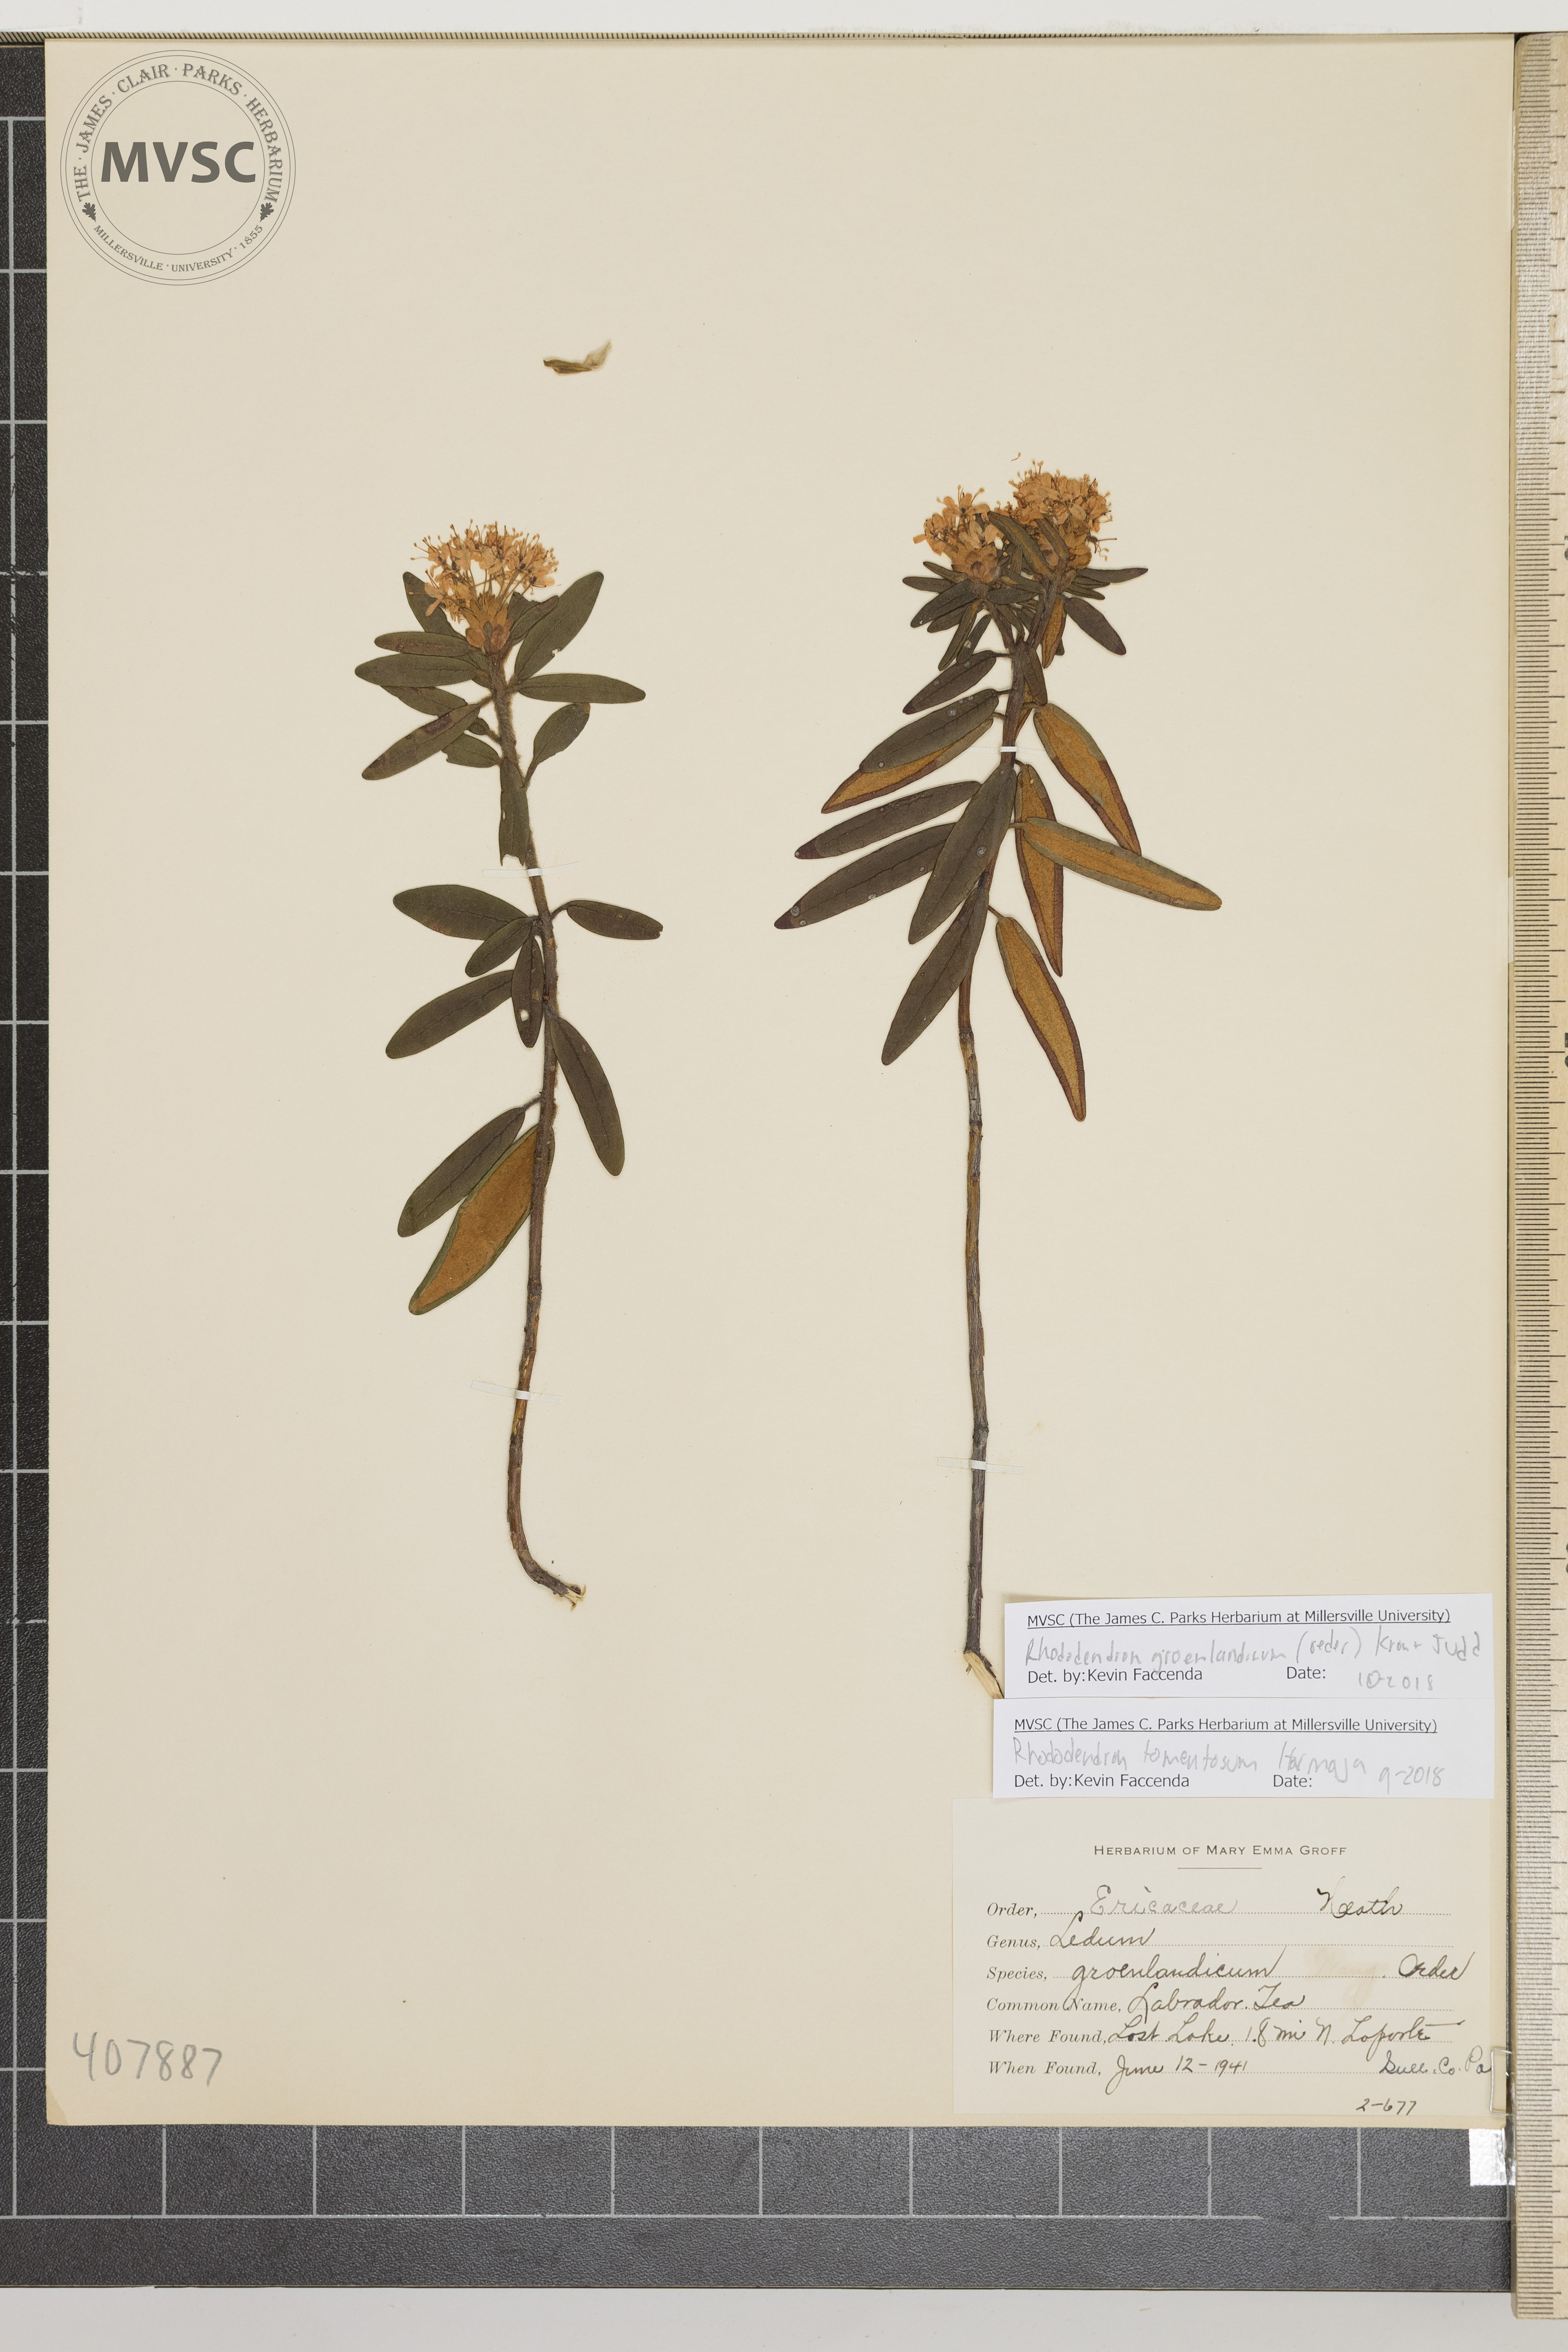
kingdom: Plantae
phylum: Tracheophyta
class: Magnoliopsida
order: Ericales
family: Ericaceae
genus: Rhododendron
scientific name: Rhododendron groenlandicum
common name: Labrador Tea
